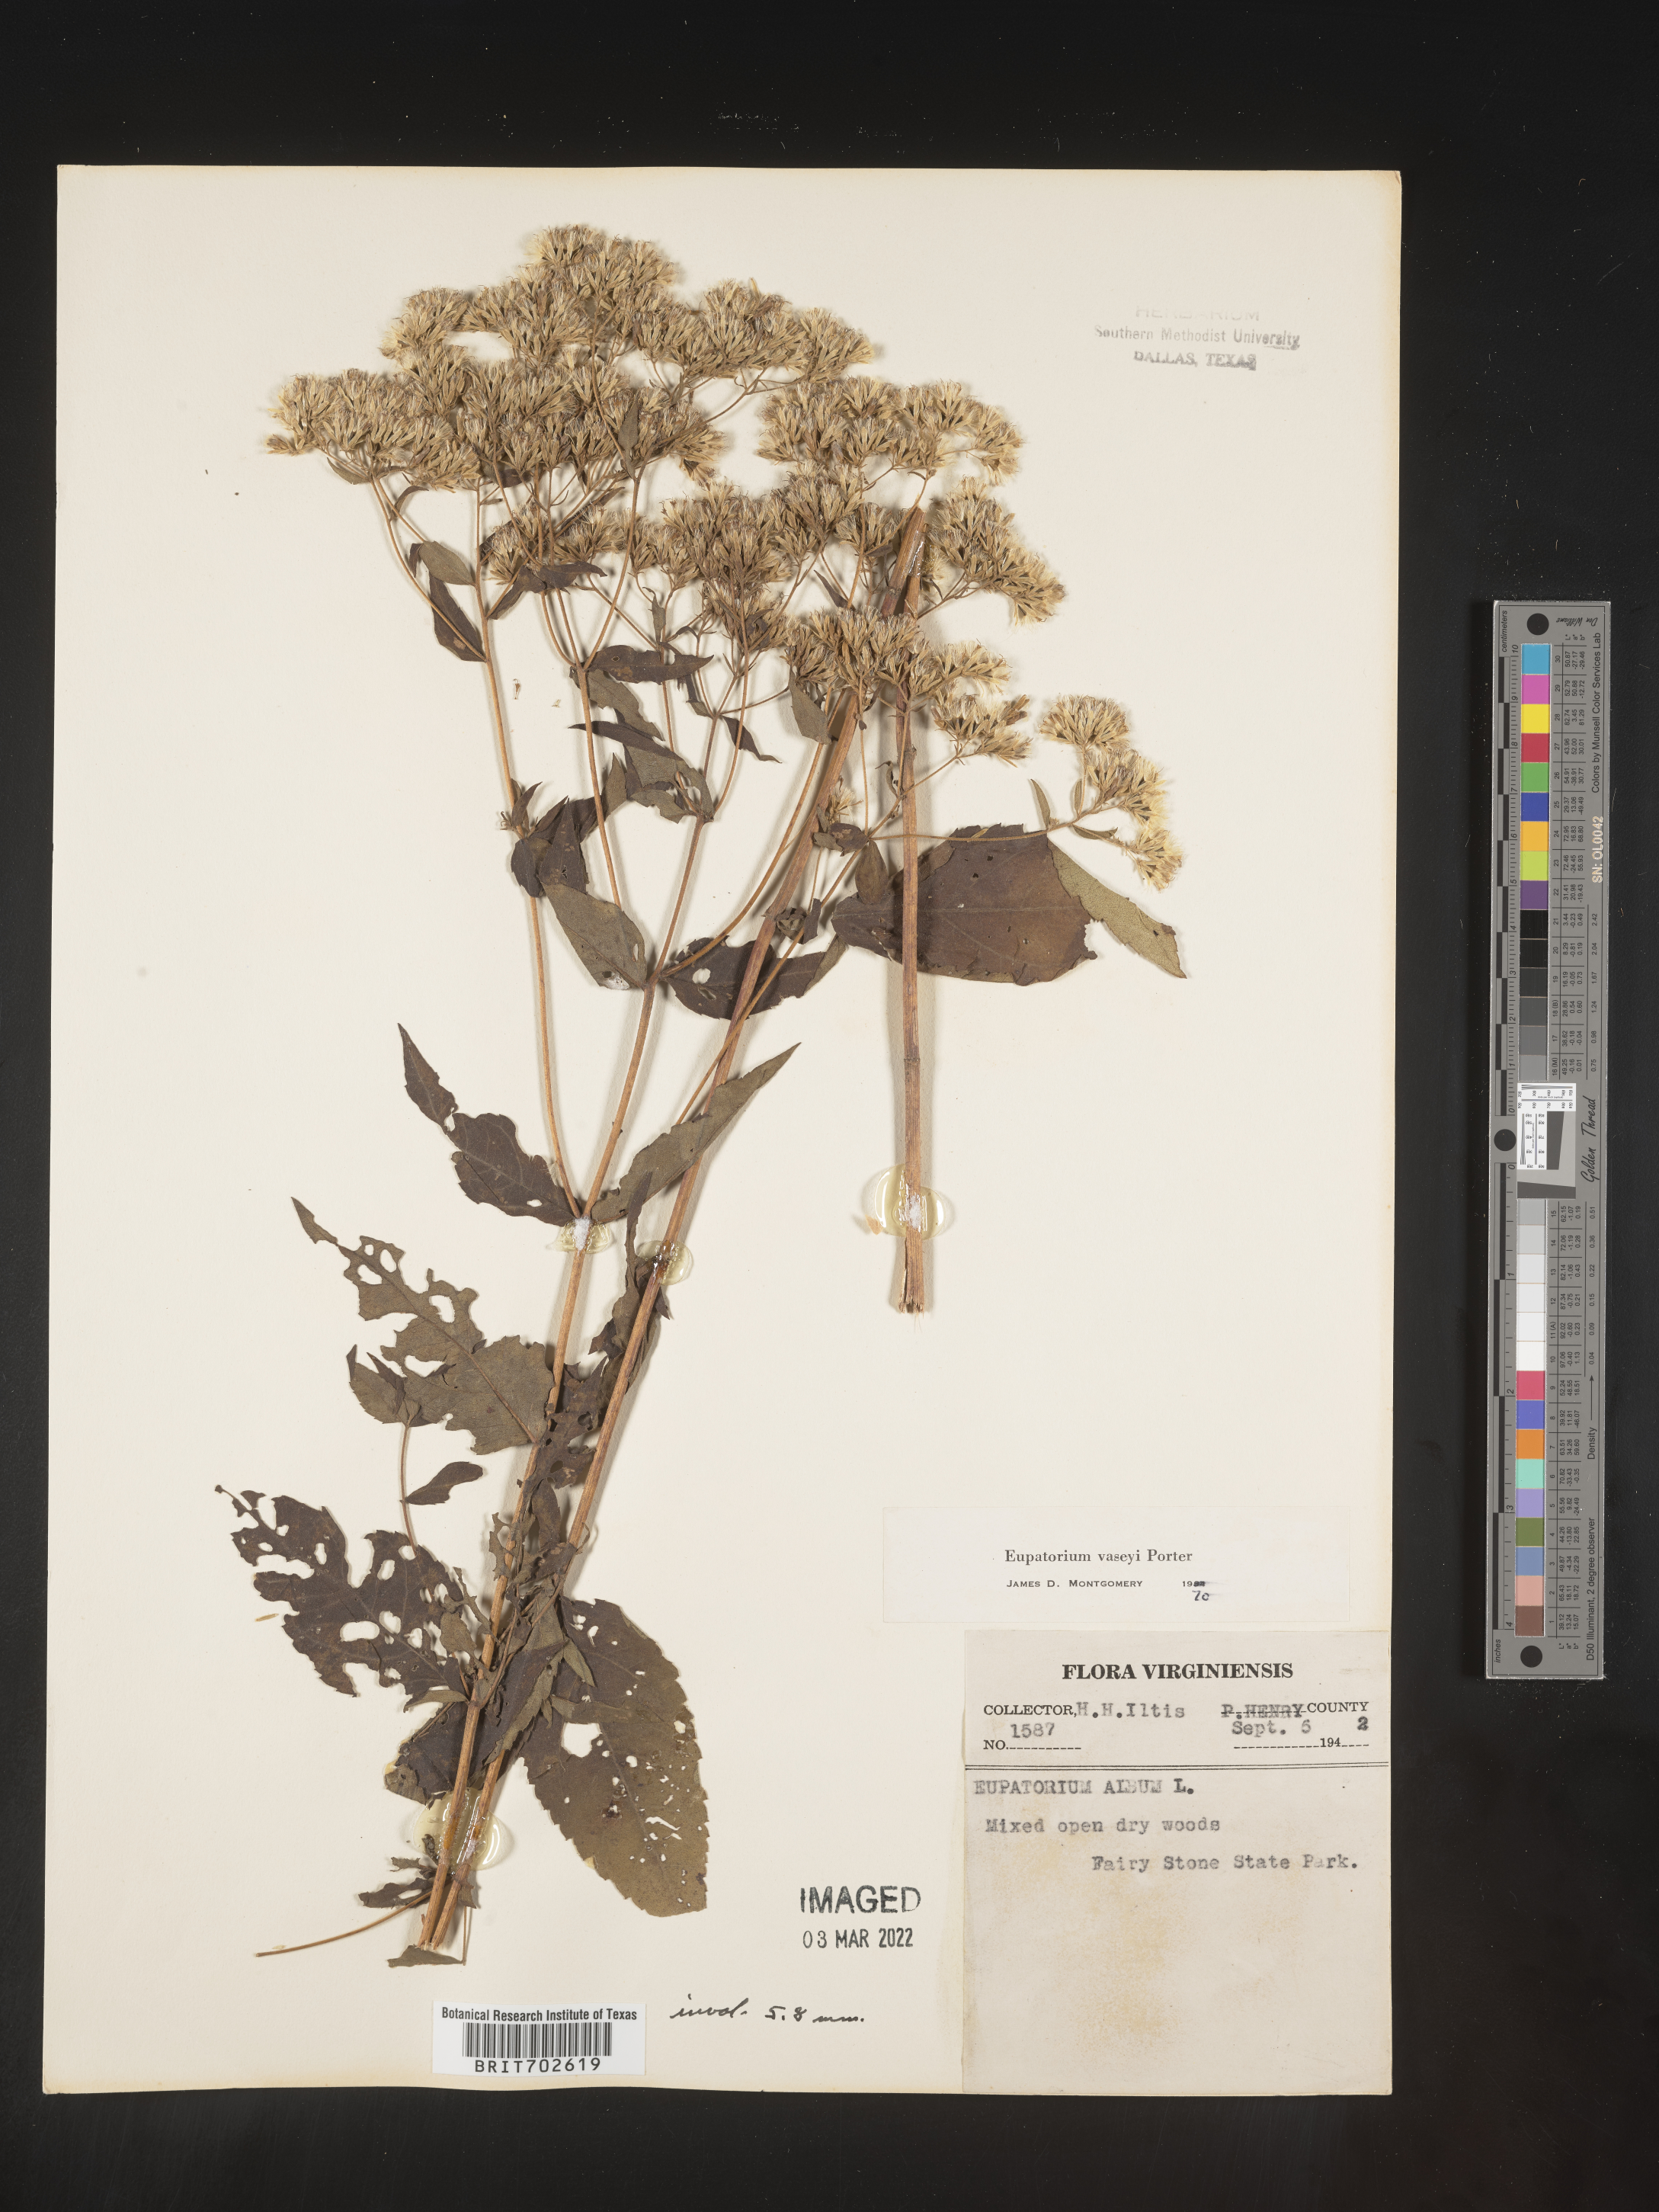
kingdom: Plantae
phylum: Tracheophyta
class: Magnoliopsida
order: Asterales
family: Asteraceae
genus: Eupatorium
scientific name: Eupatorium sessilifolium
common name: Upland boneset
